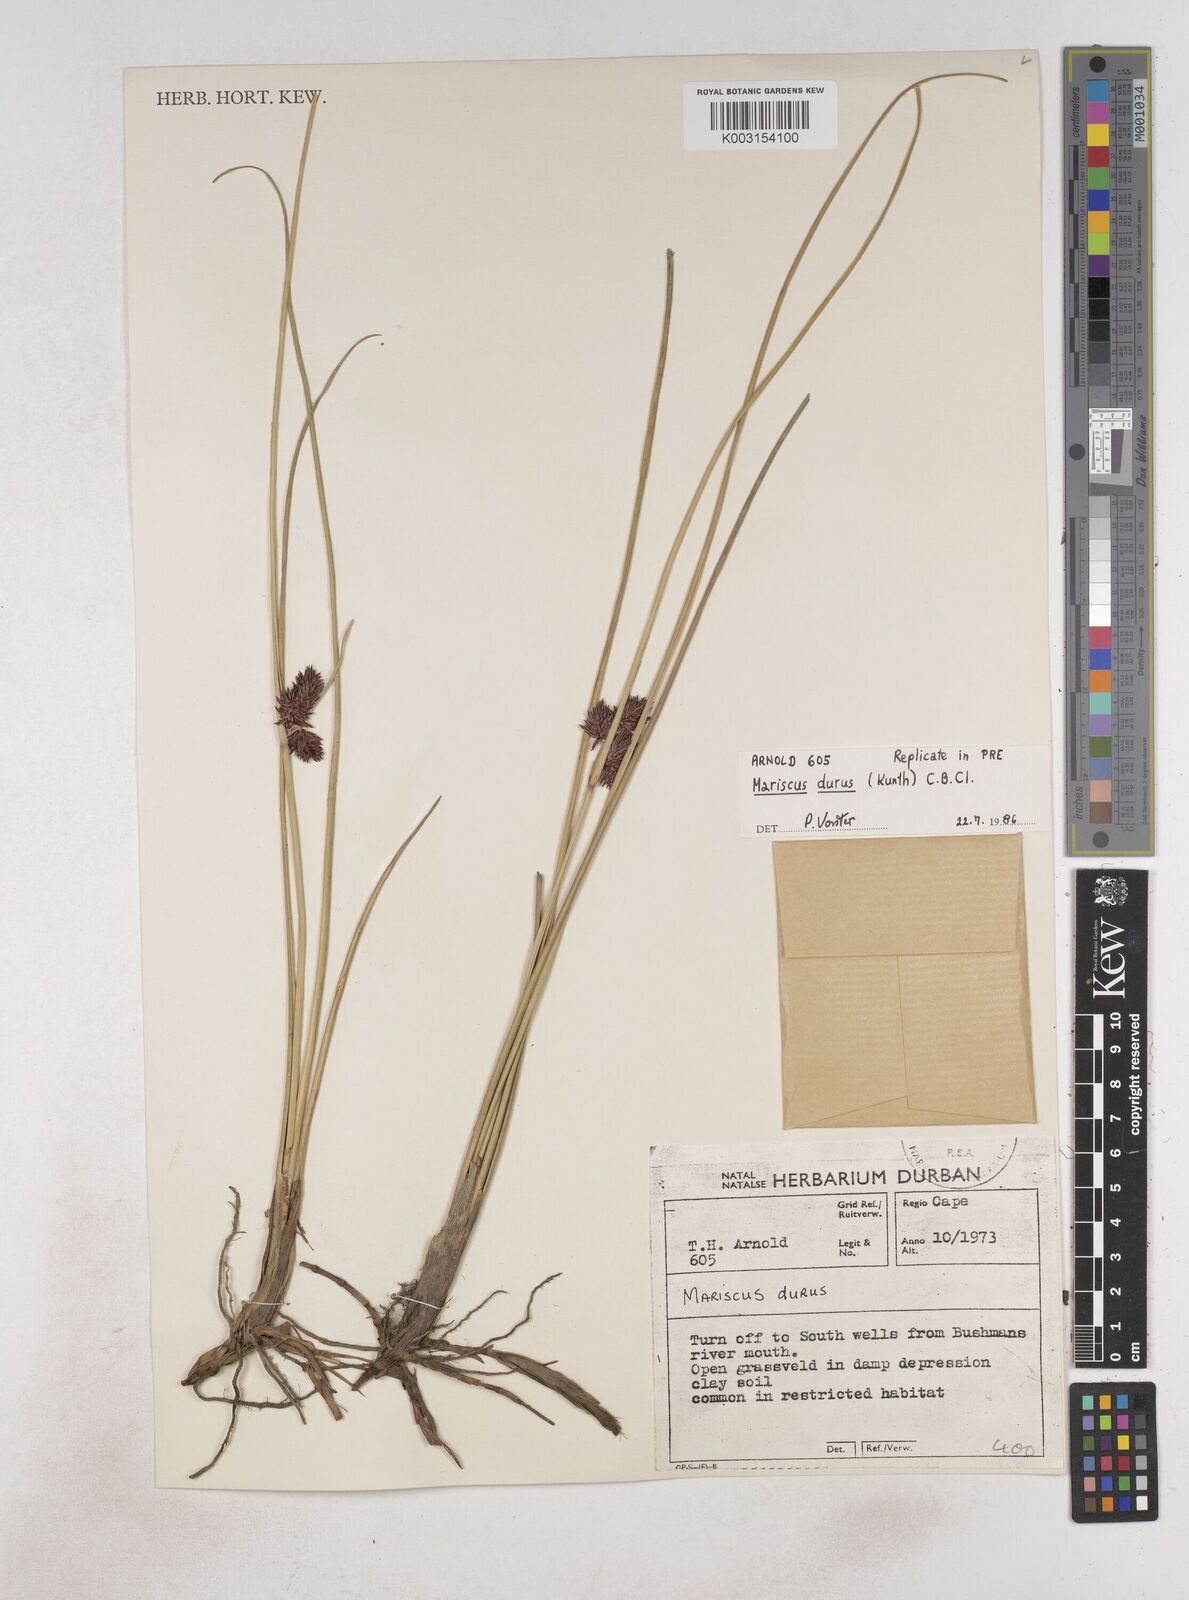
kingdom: Plantae
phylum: Tracheophyta
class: Liliopsida
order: Poales
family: Cyperaceae
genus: Cyperus
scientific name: Cyperus durus
